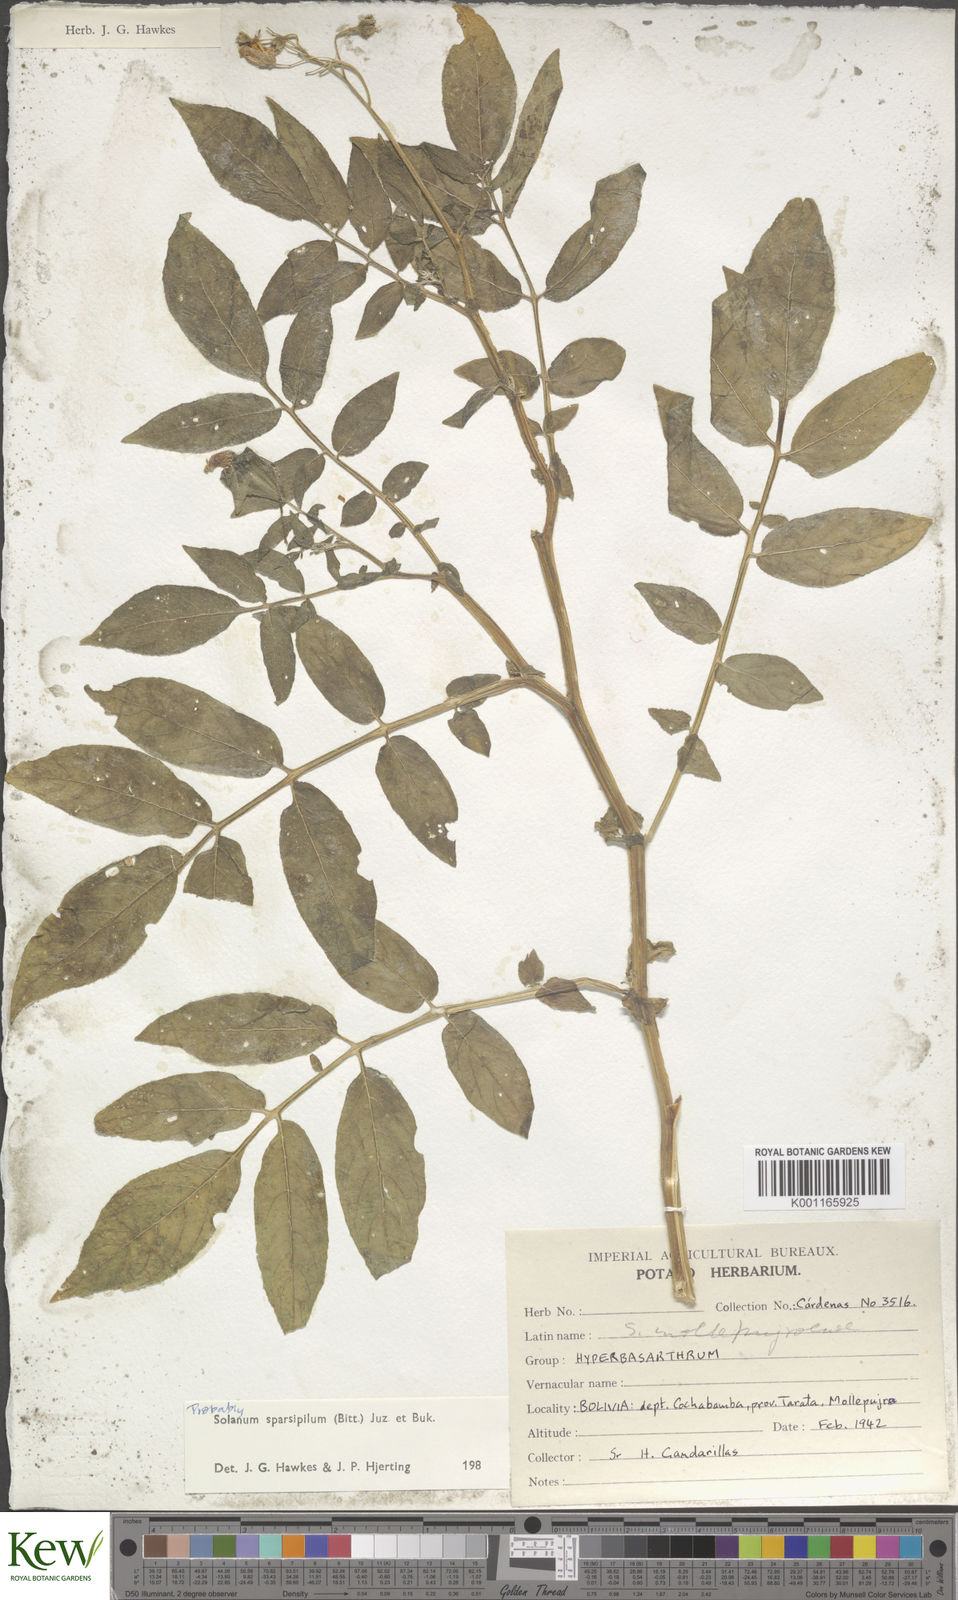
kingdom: Plantae
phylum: Tracheophyta
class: Magnoliopsida
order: Solanales
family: Solanaceae
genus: Solanum
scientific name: Solanum brevicaule
